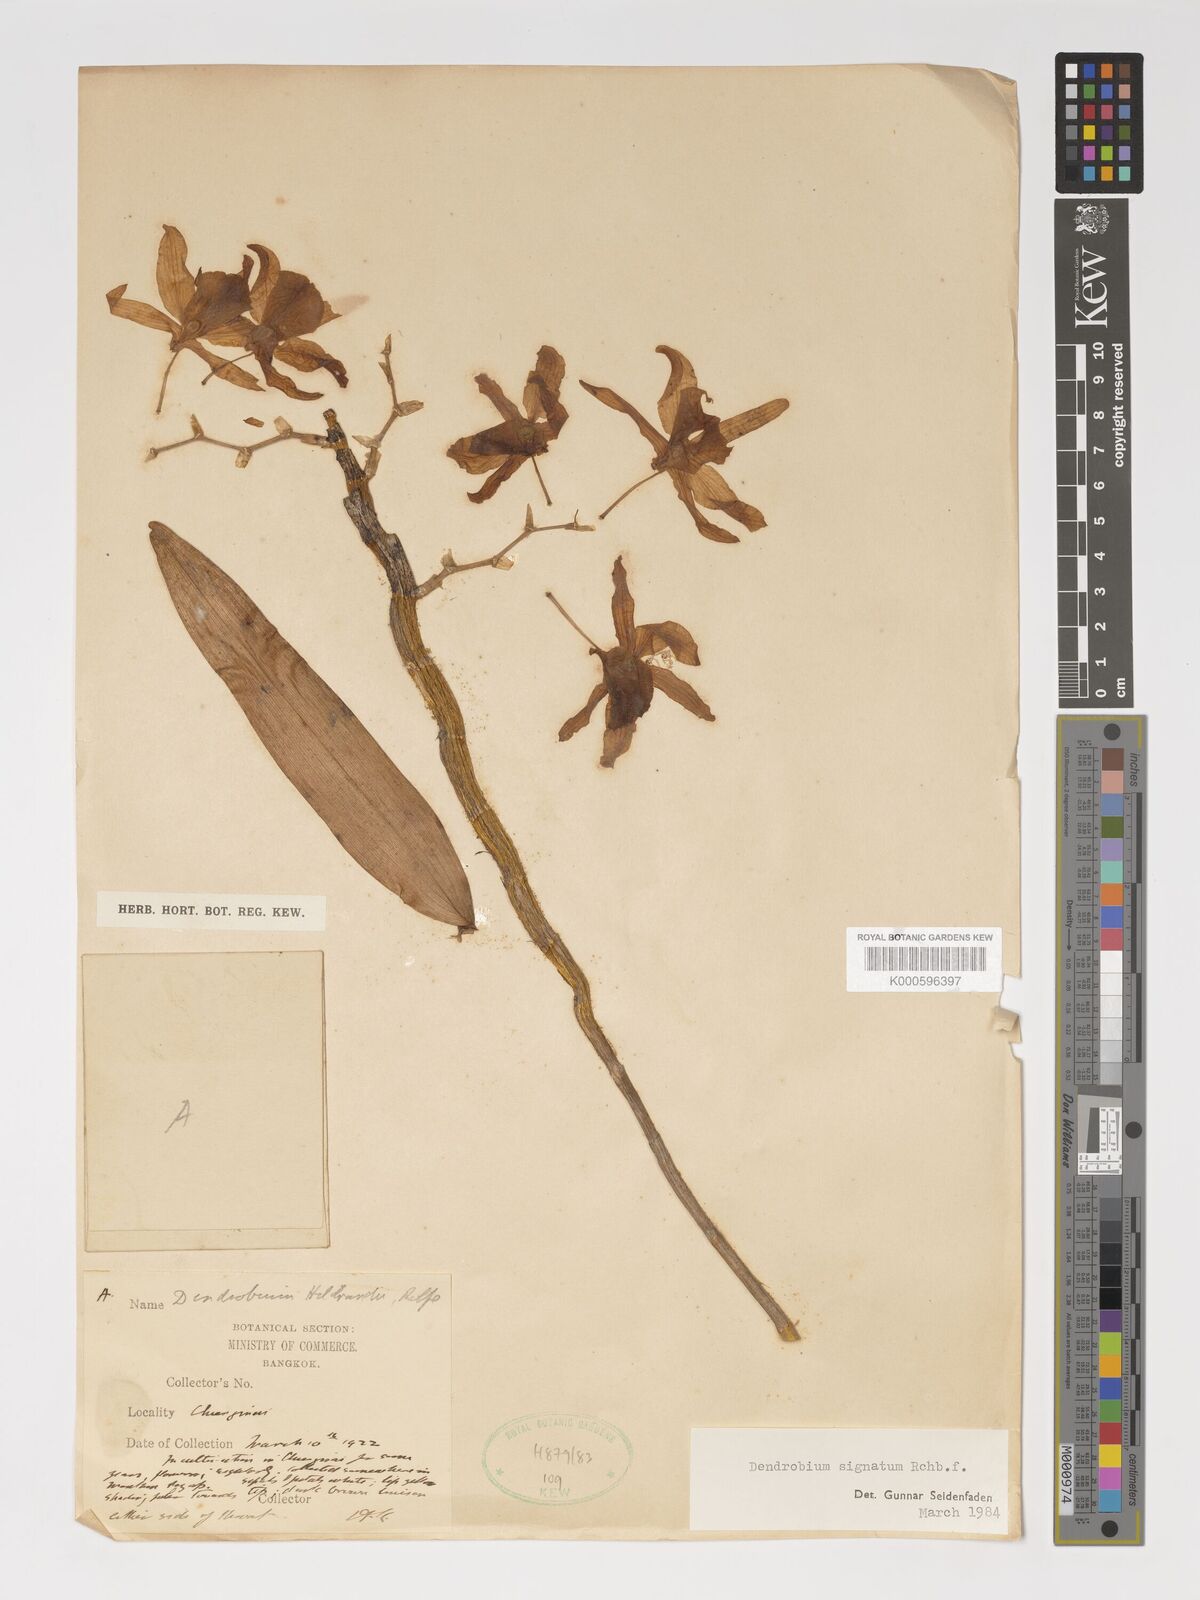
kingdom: Plantae
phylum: Tracheophyta
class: Liliopsida
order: Asparagales
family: Orchidaceae
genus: Dendrobium
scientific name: Dendrobium signatum
